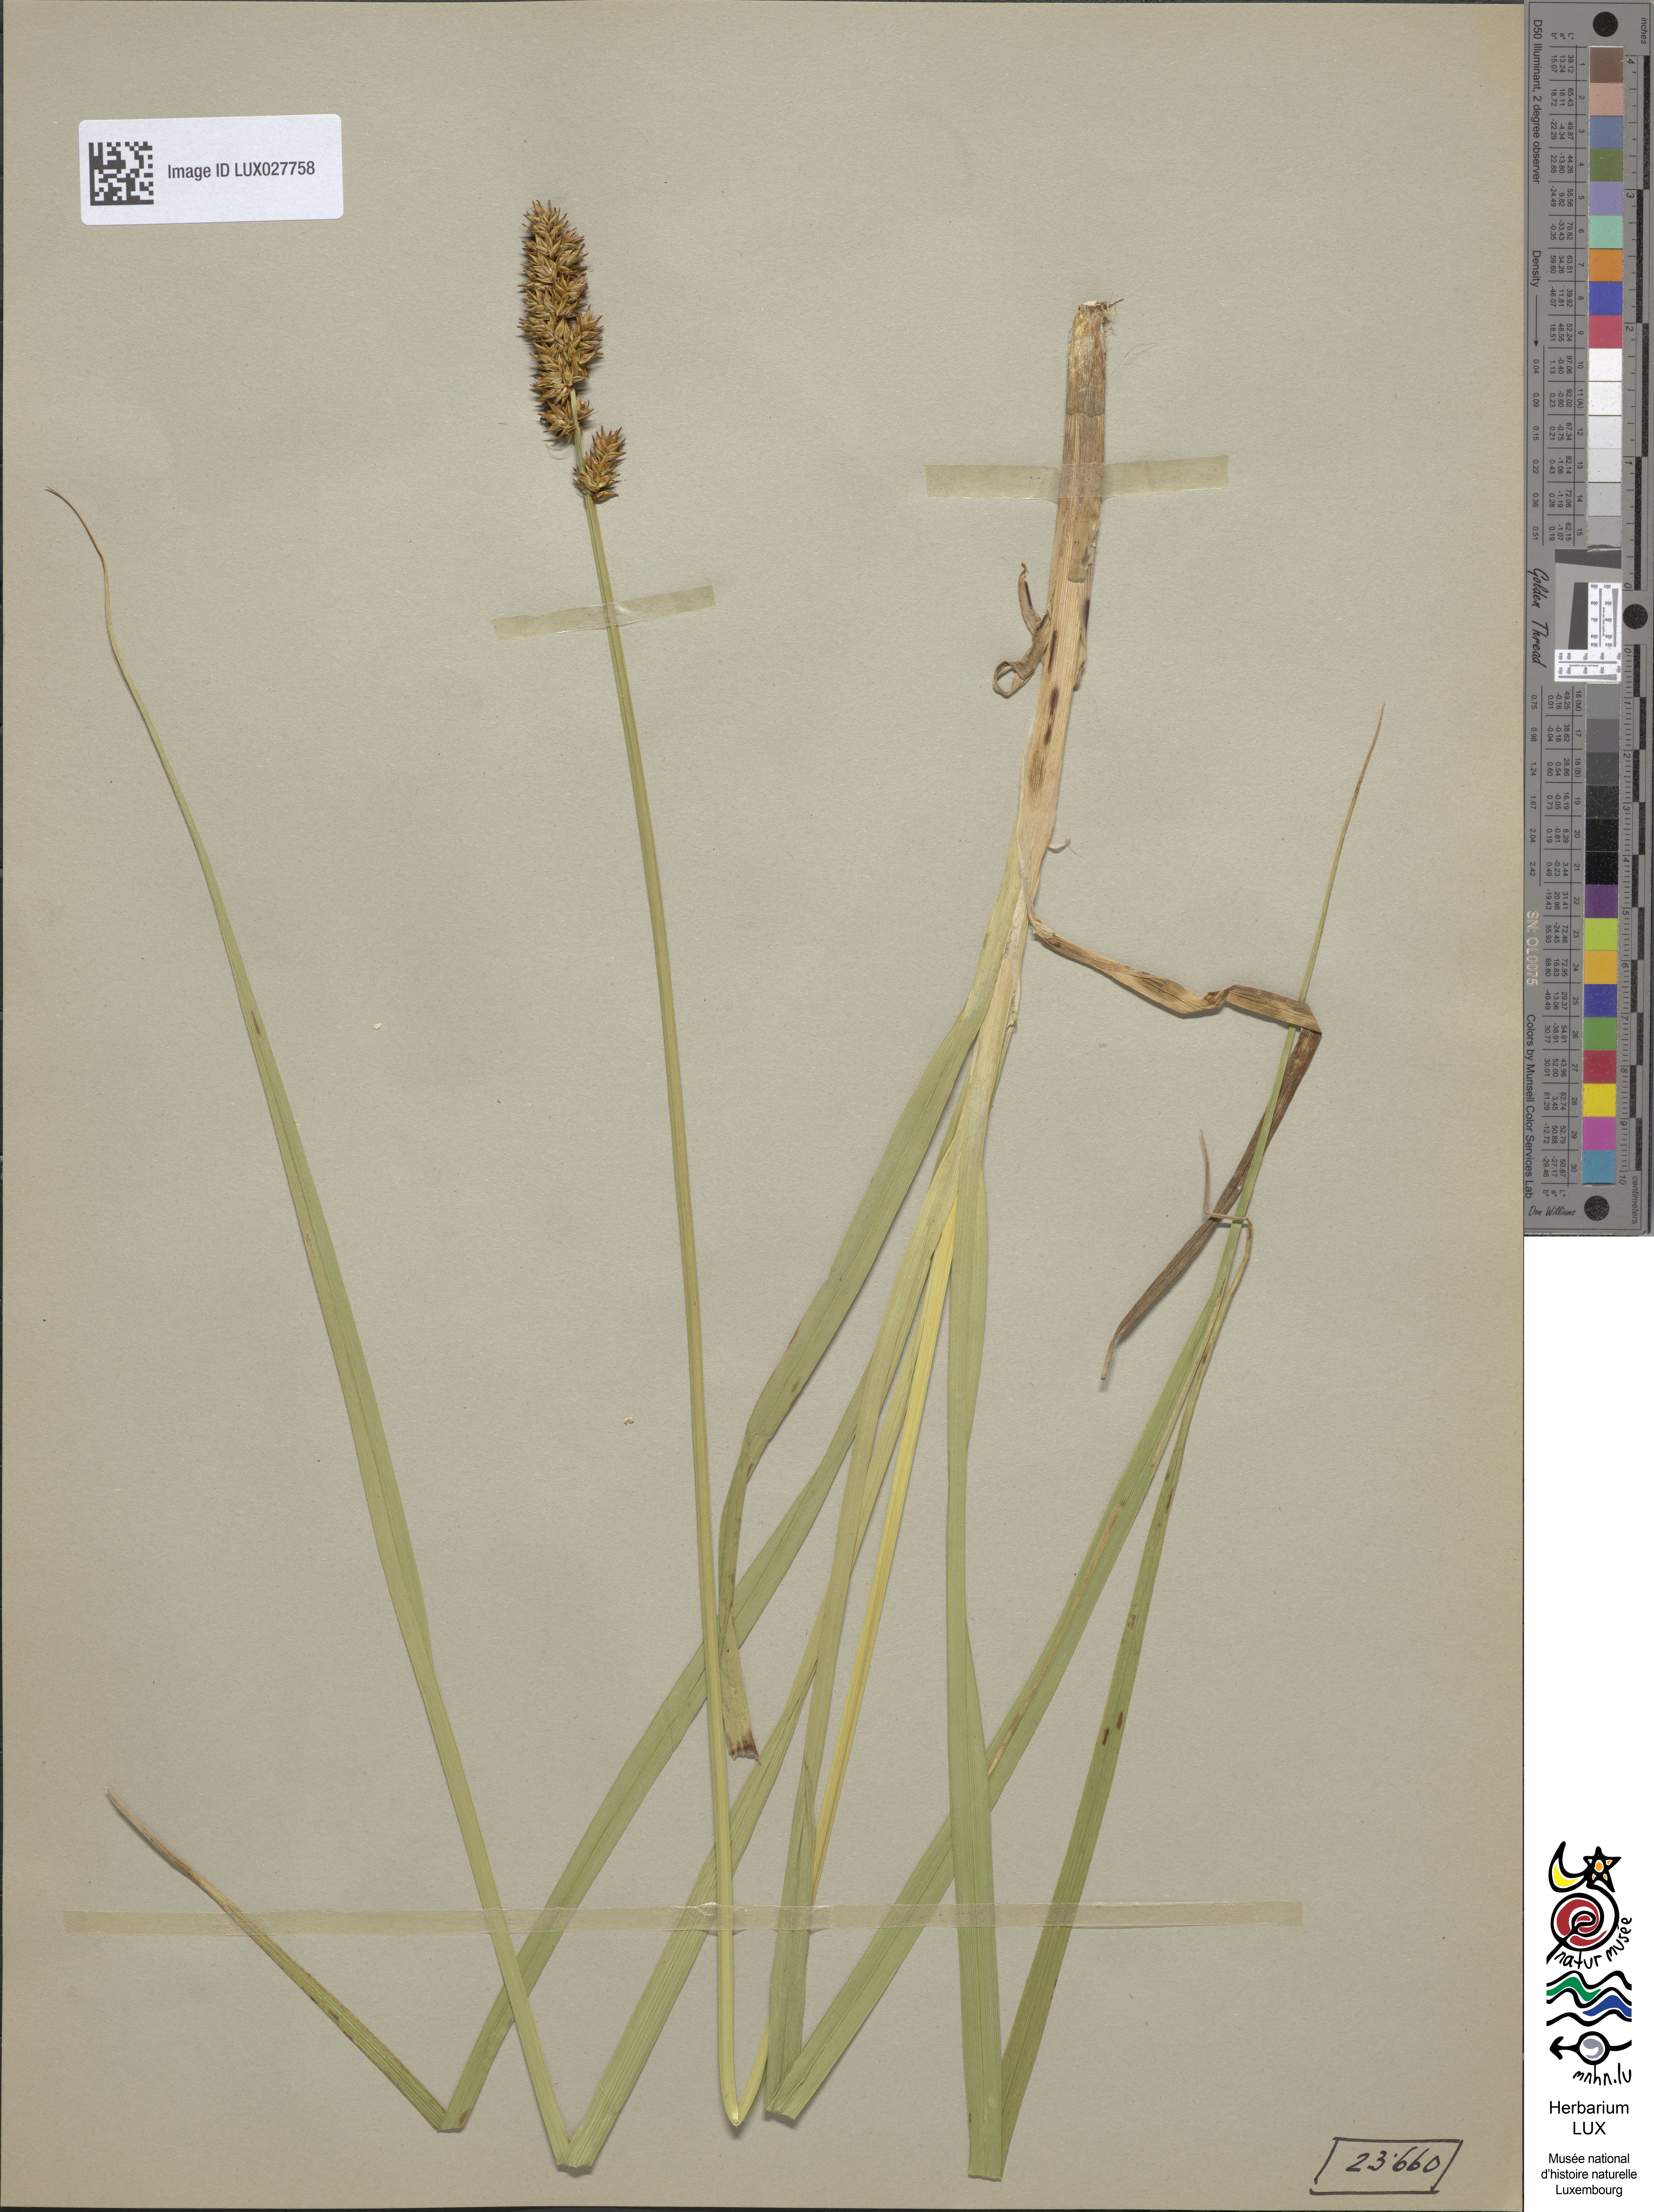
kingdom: Plantae
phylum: Tracheophyta
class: Liliopsida
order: Poales
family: Cyperaceae
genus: Carex
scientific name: Carex vulpina
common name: True fox-sedge
